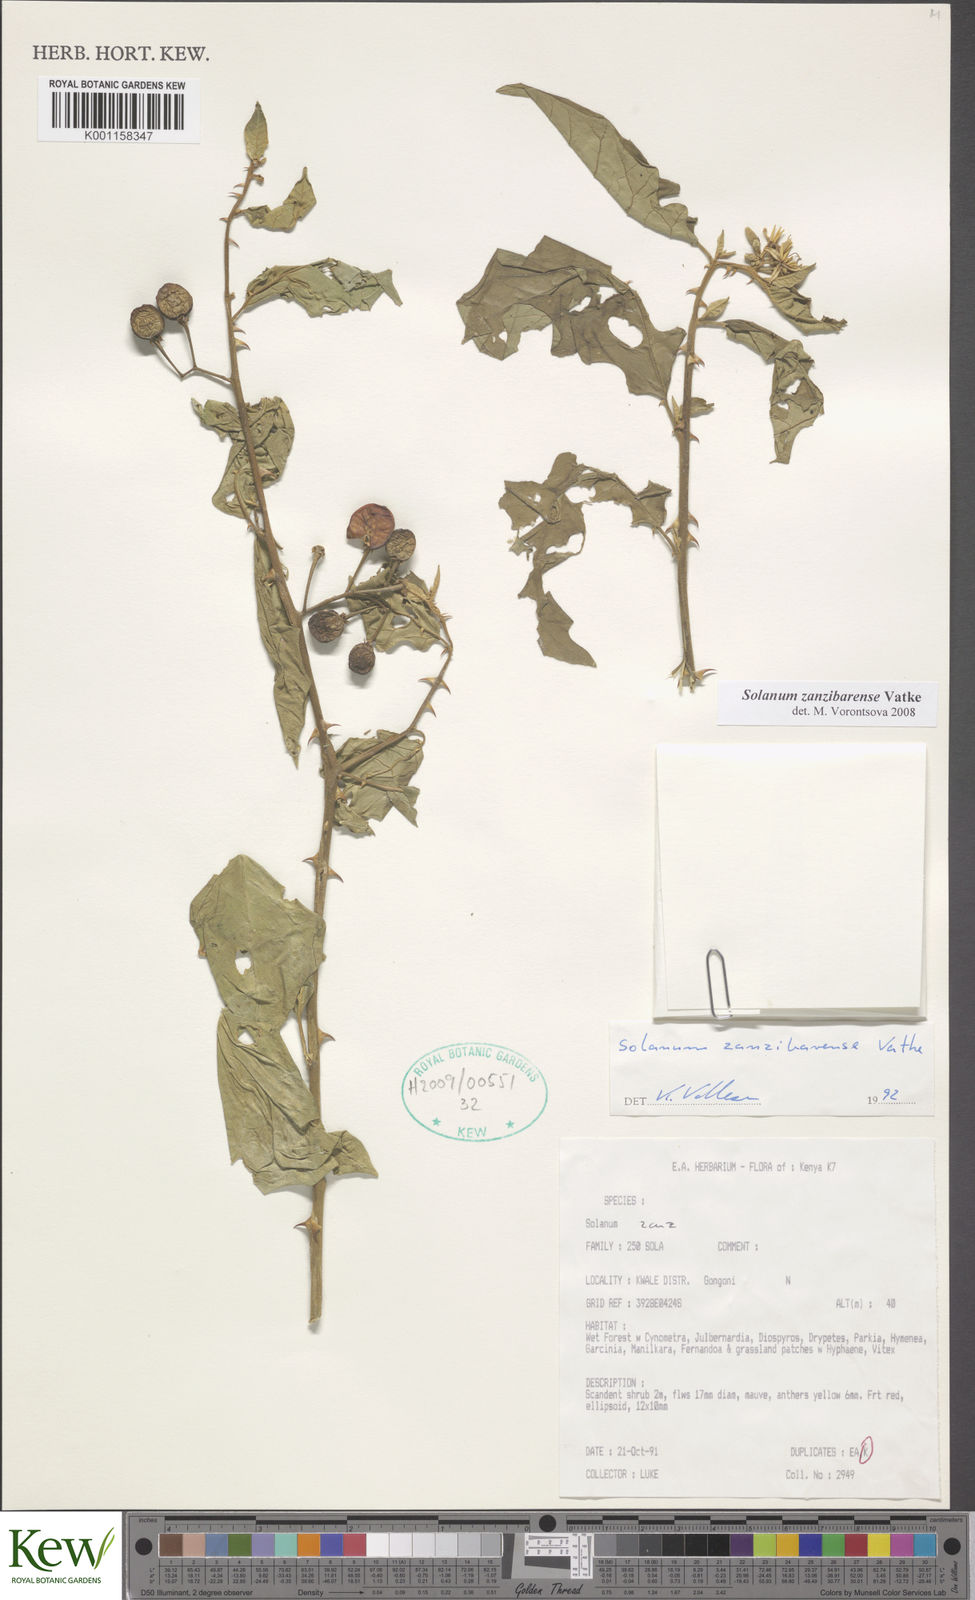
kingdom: Plantae
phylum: Tracheophyta
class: Magnoliopsida
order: Solanales
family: Solanaceae
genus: Solanum
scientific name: Solanum zanzibarense
